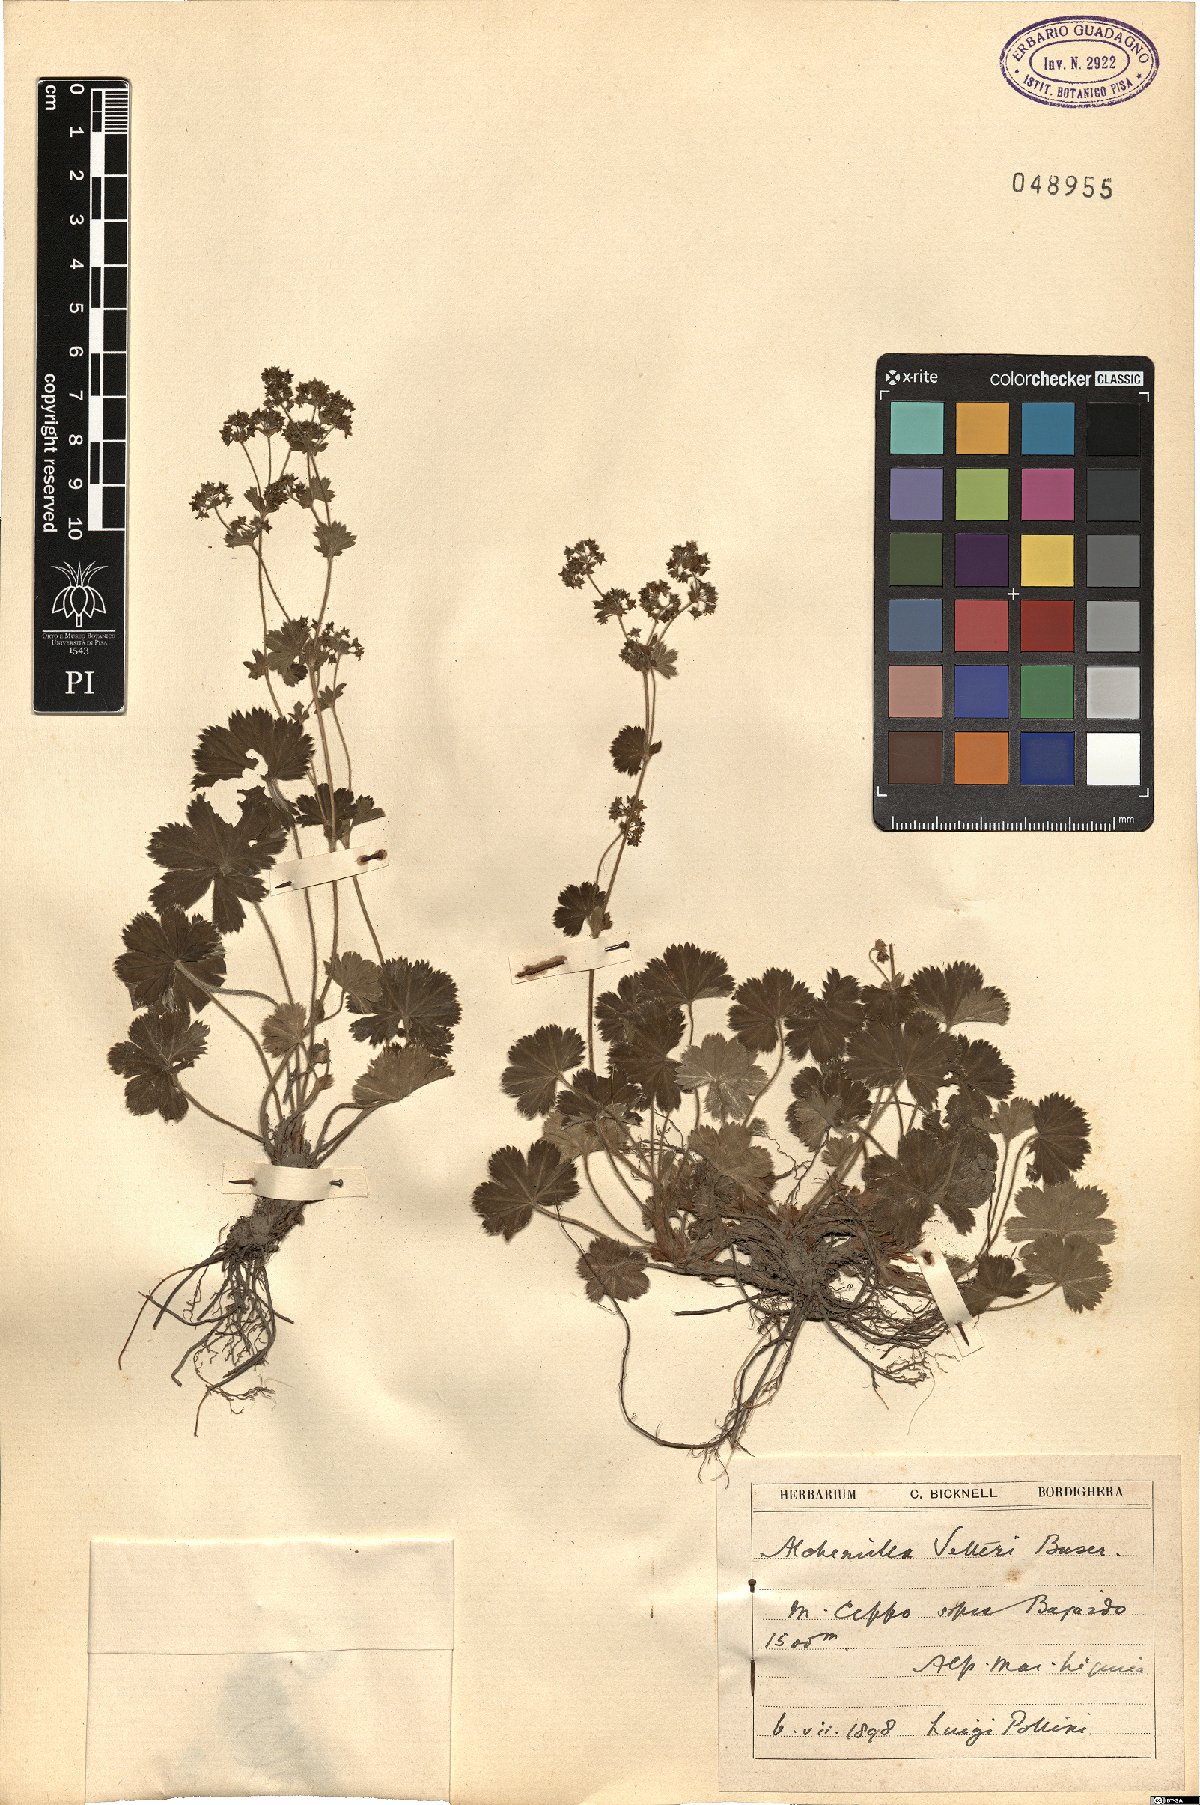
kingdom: Plantae
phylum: Tracheophyta
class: Magnoliopsida
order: Rosales
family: Rosaceae
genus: Alchemilla
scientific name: Alchemilla vetteri
